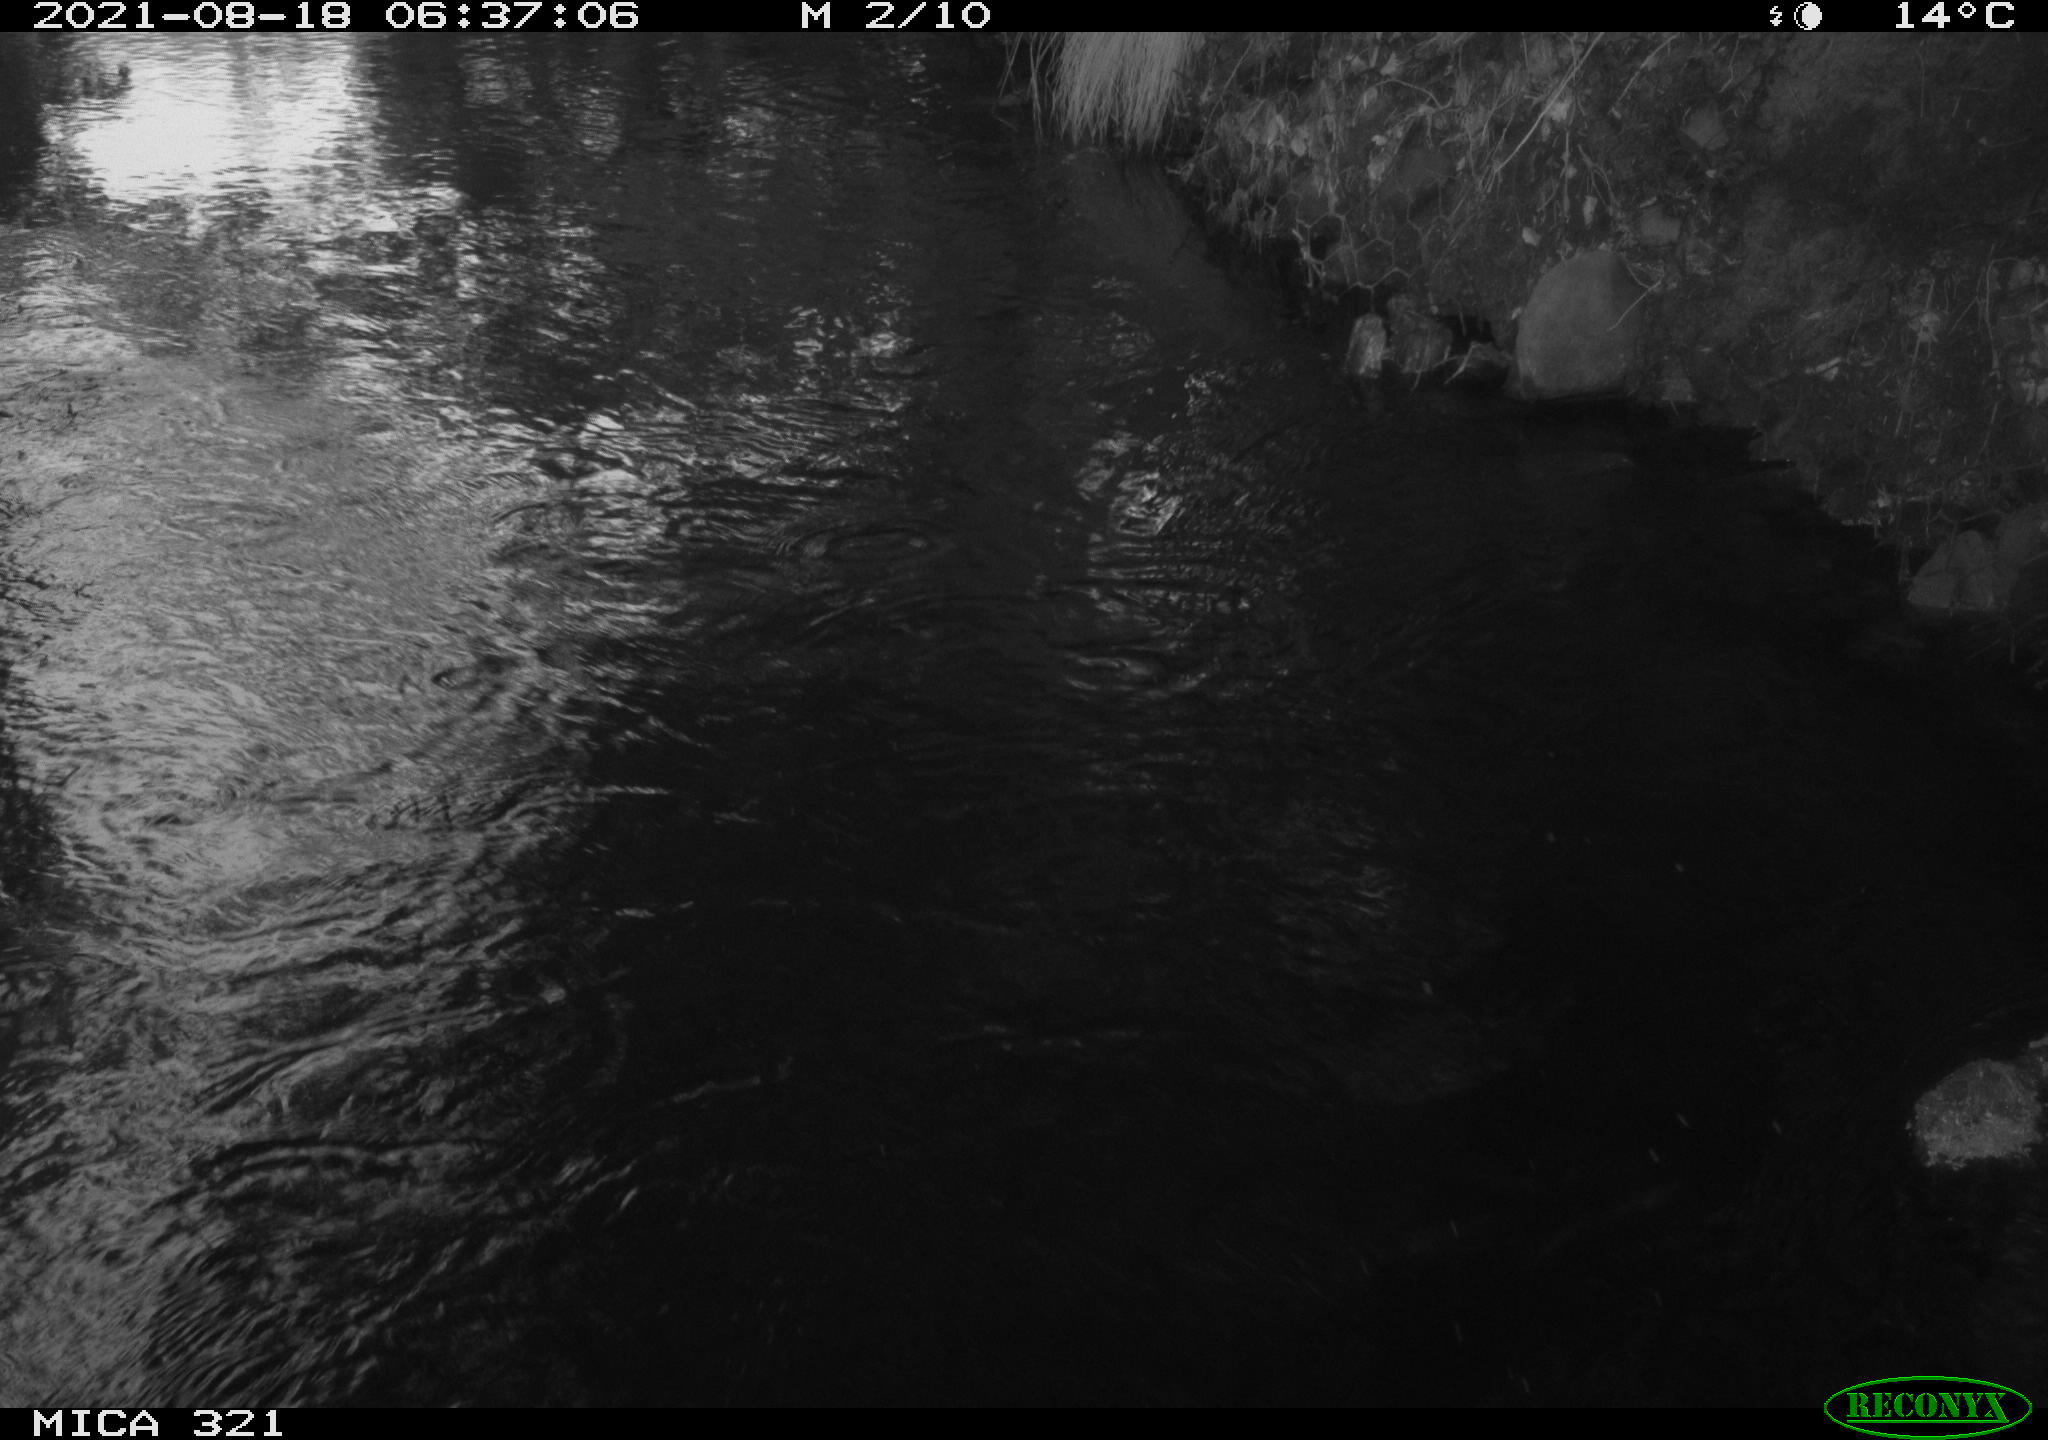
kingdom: Animalia
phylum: Chordata
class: Aves
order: Anseriformes
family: Anatidae
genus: Anas
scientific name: Anas platyrhynchos
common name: Mallard
